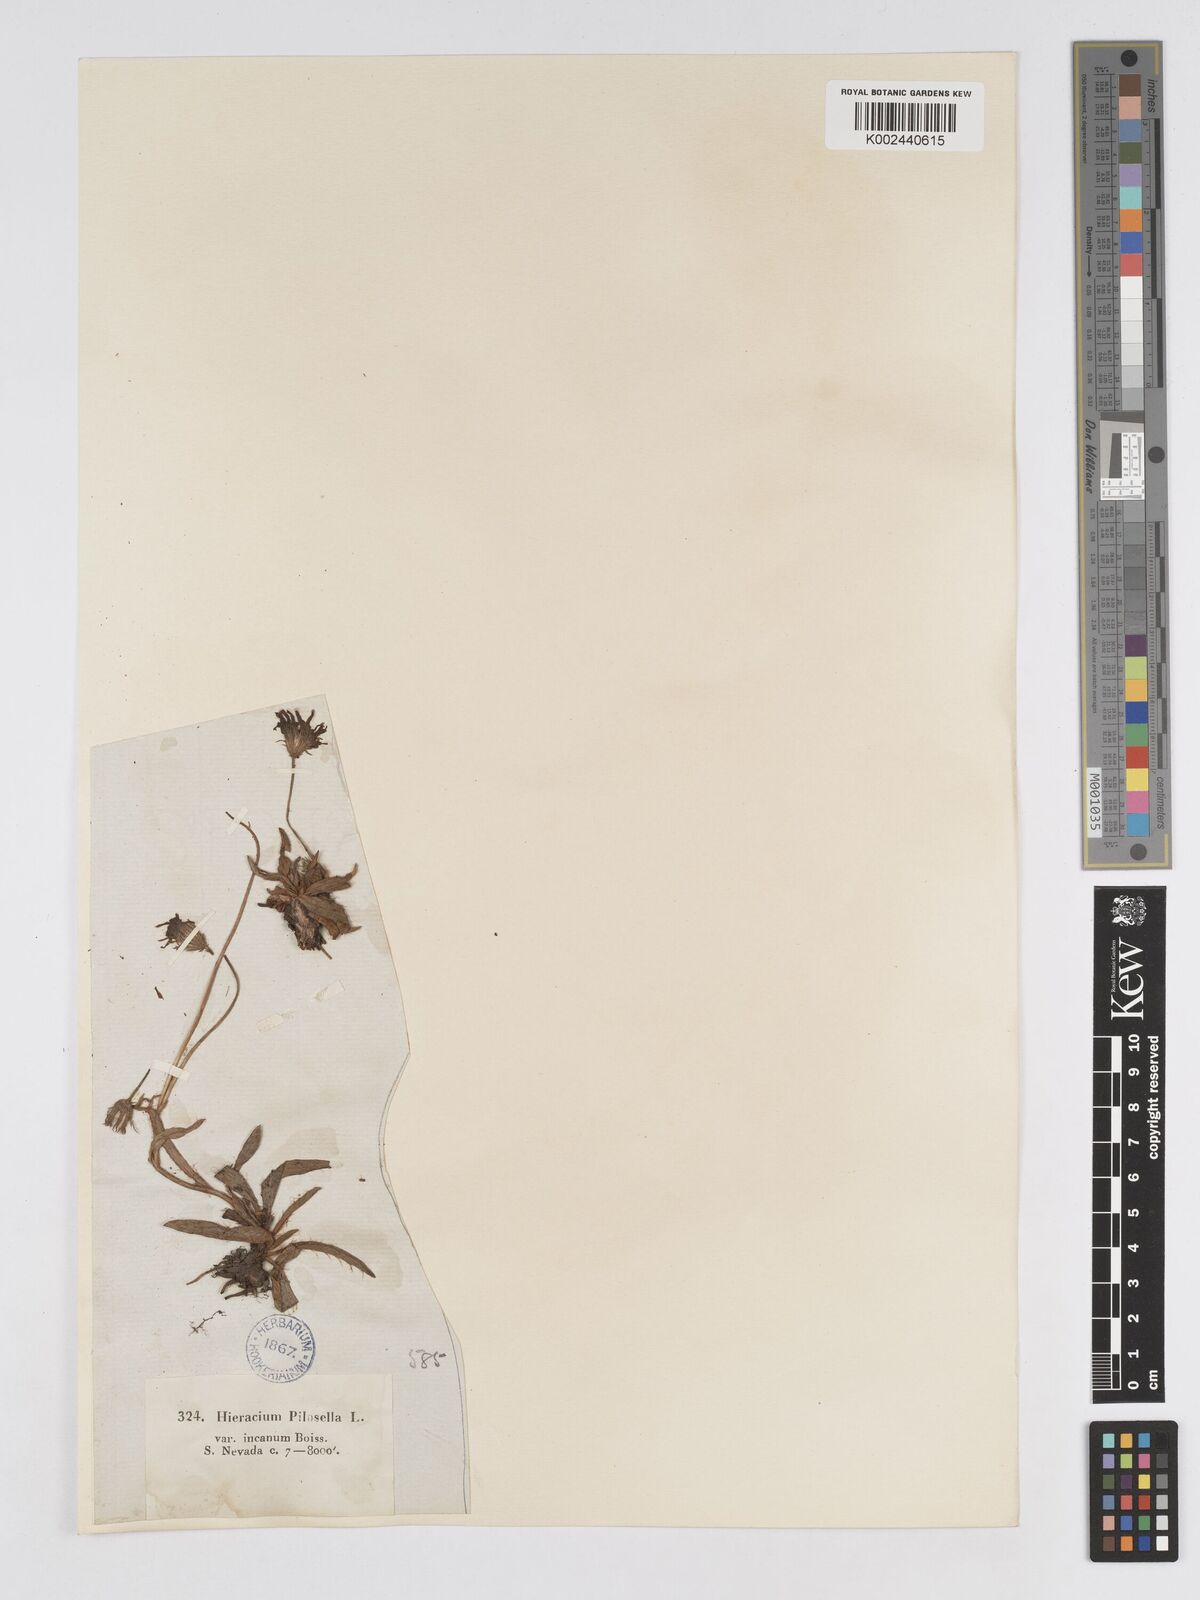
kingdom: Plantae
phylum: Tracheophyta
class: Magnoliopsida
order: Asterales
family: Asteraceae
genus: Pilosella
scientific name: Pilosella castellana
